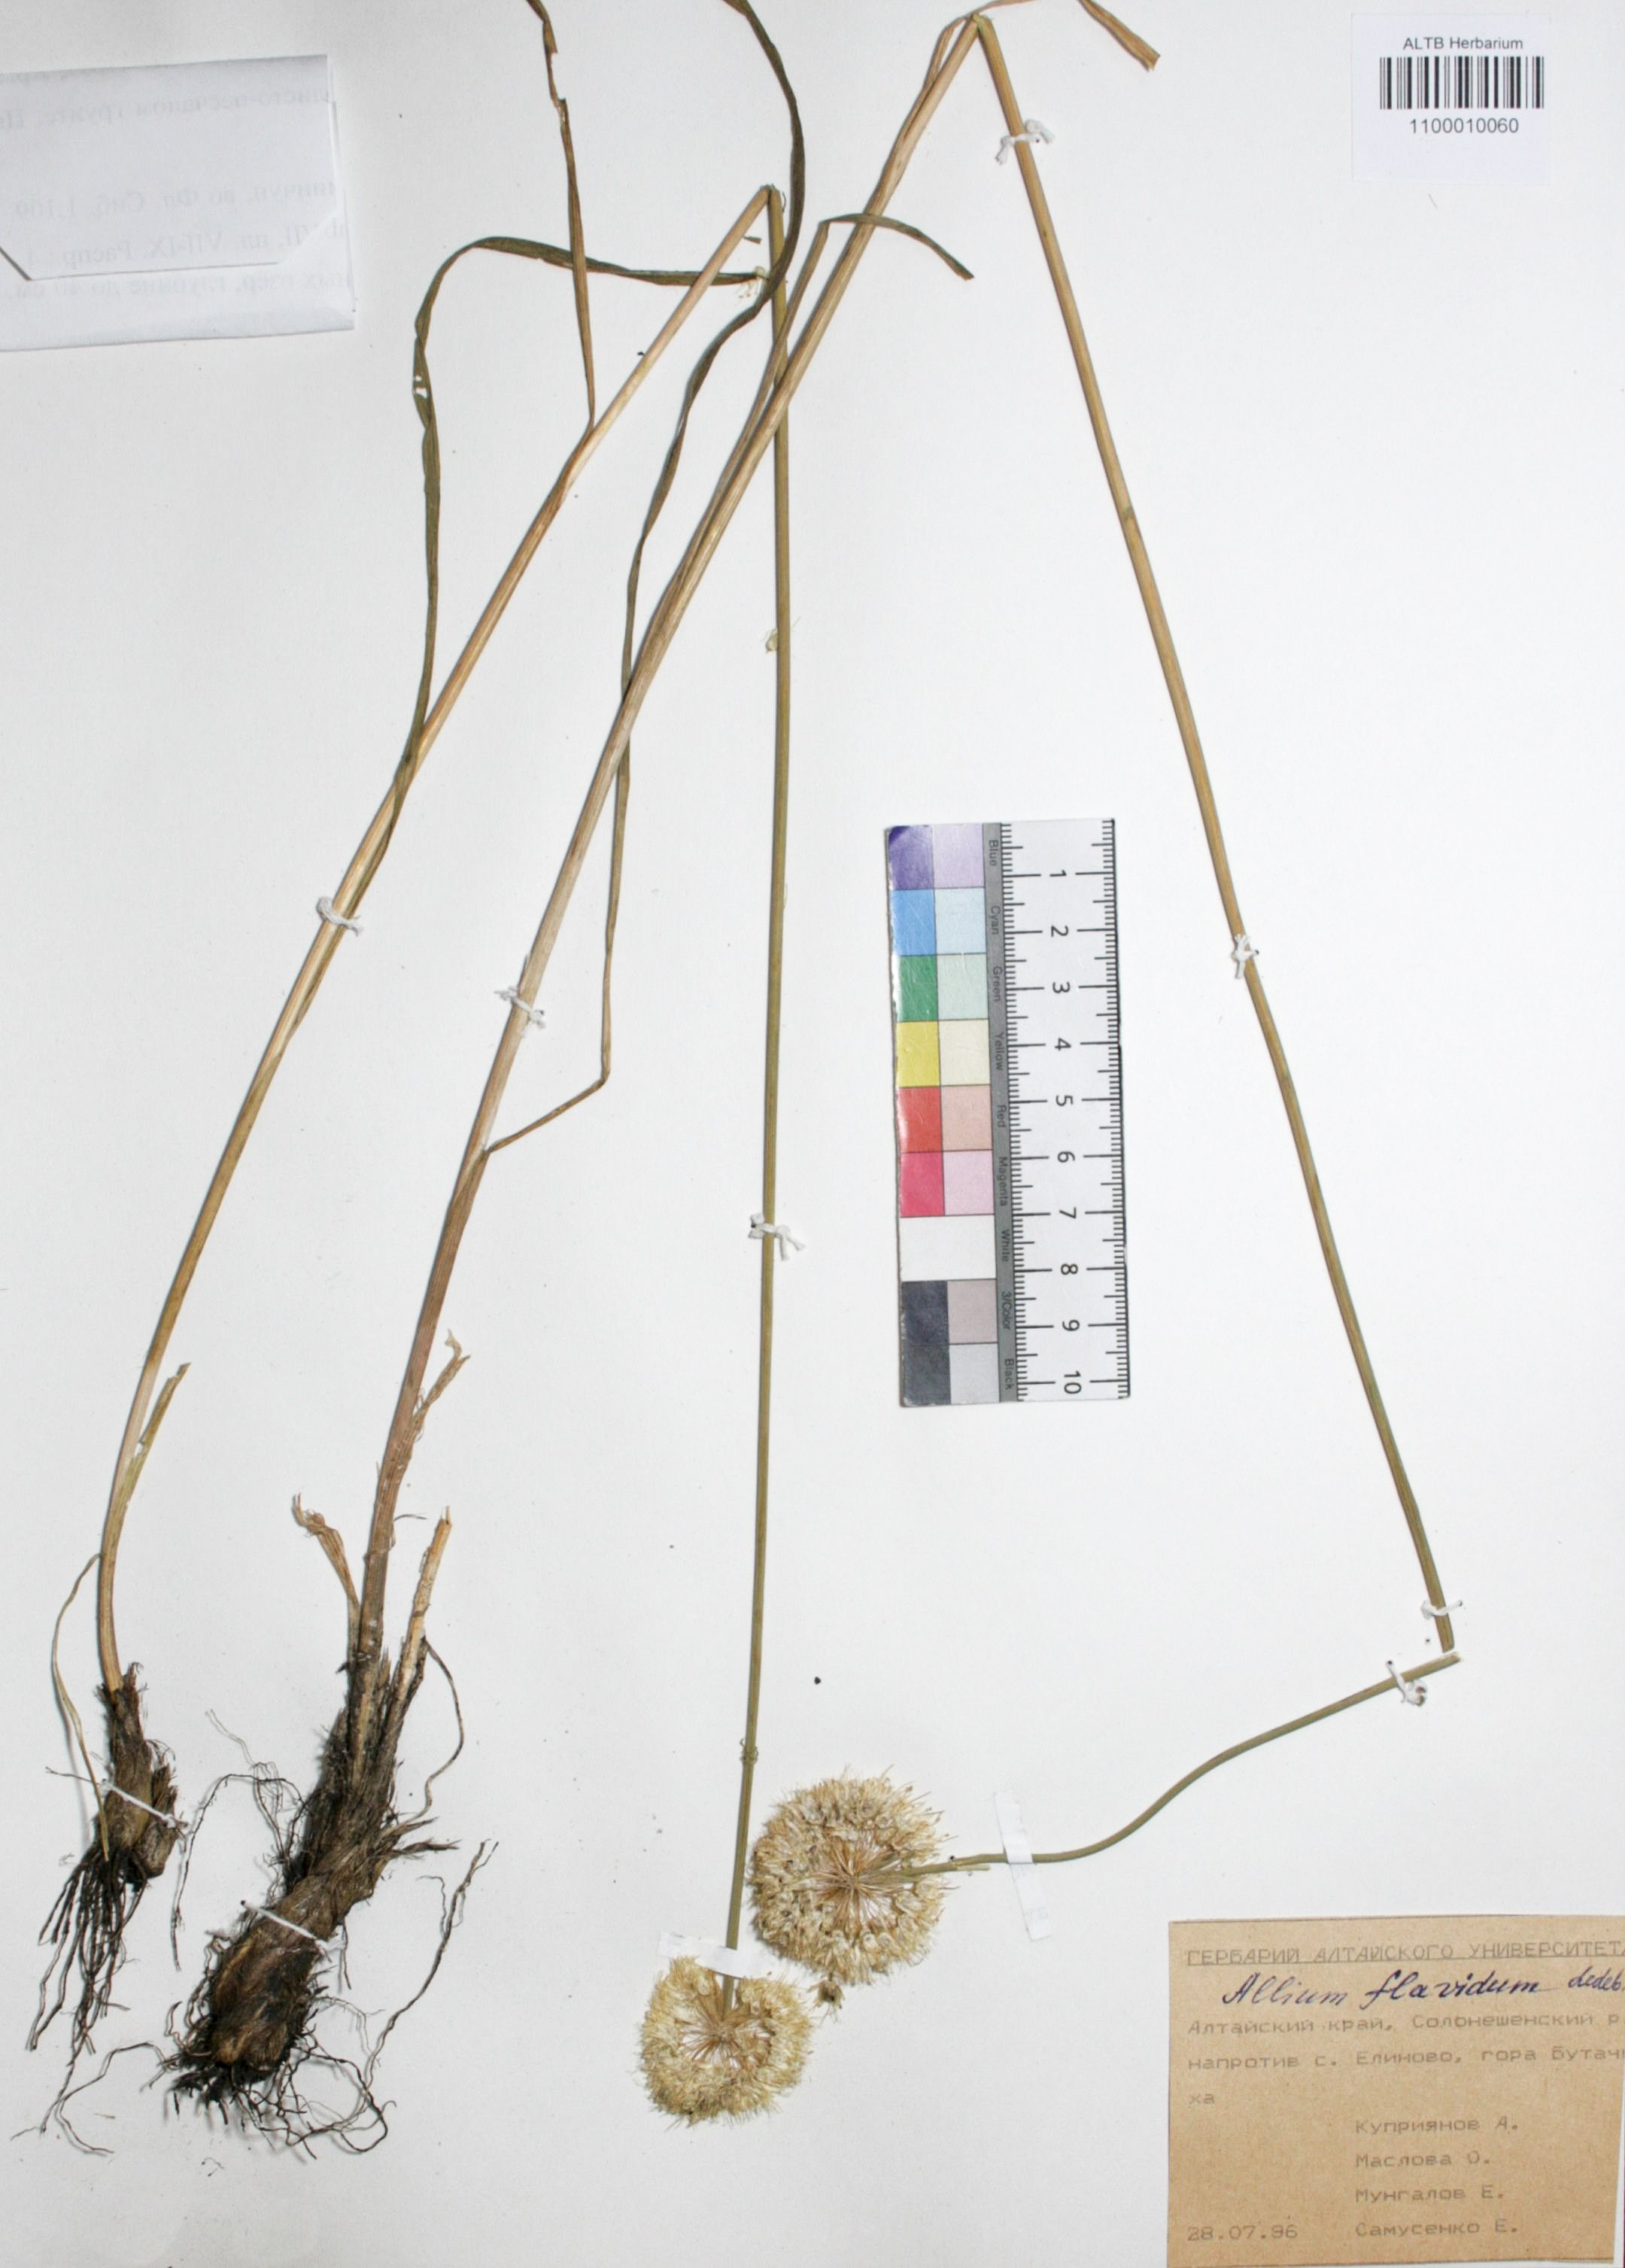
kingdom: Plantae
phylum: Tracheophyta
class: Liliopsida
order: Asparagales
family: Amaryllidaceae
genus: Allium
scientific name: Allium flavidum
